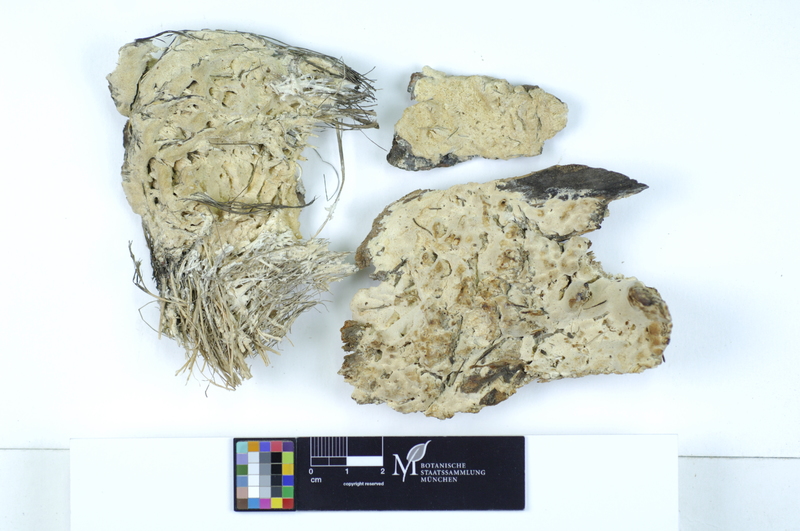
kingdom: Fungi
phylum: Basidiomycota
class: Agaricomycetes
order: Polyporales
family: Fomitopsidaceae
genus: Daedalea
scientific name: Daedalea xantha
